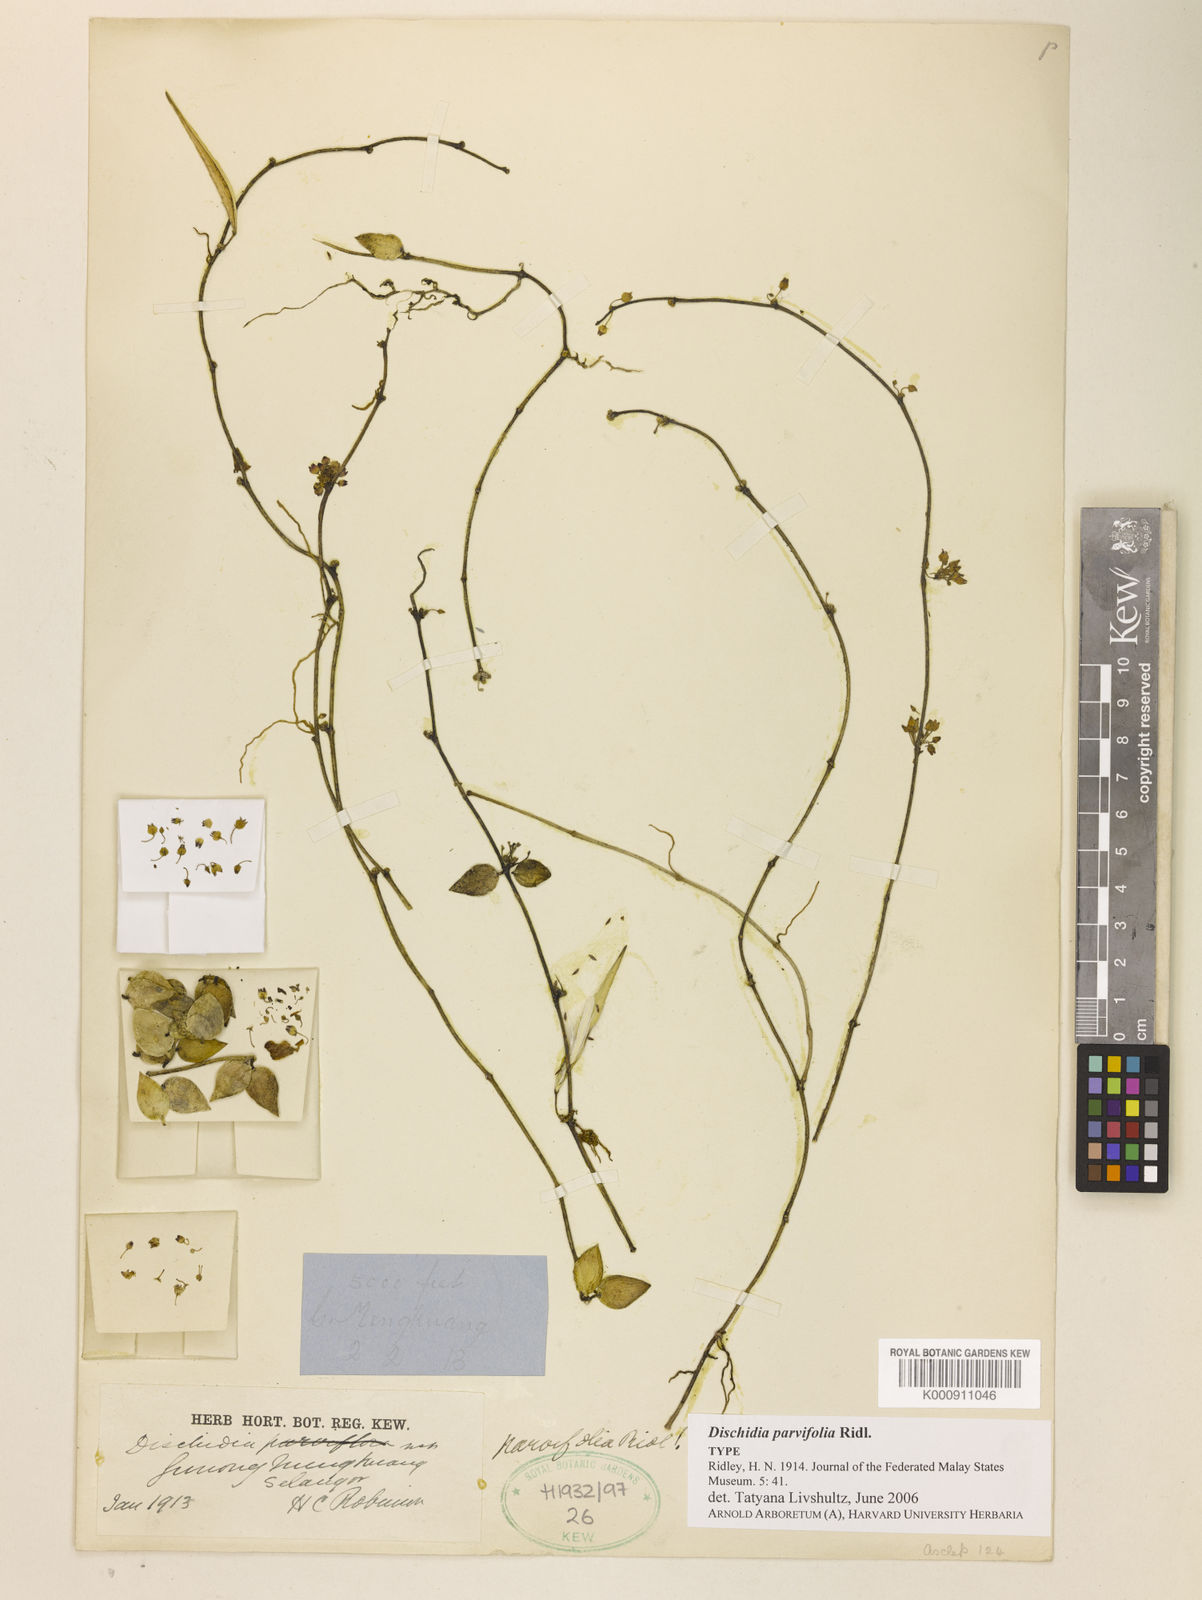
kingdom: Plantae
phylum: Tracheophyta
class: Magnoliopsida
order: Gentianales
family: Apocynaceae
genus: Dischidia
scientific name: Dischidia parvifolia
